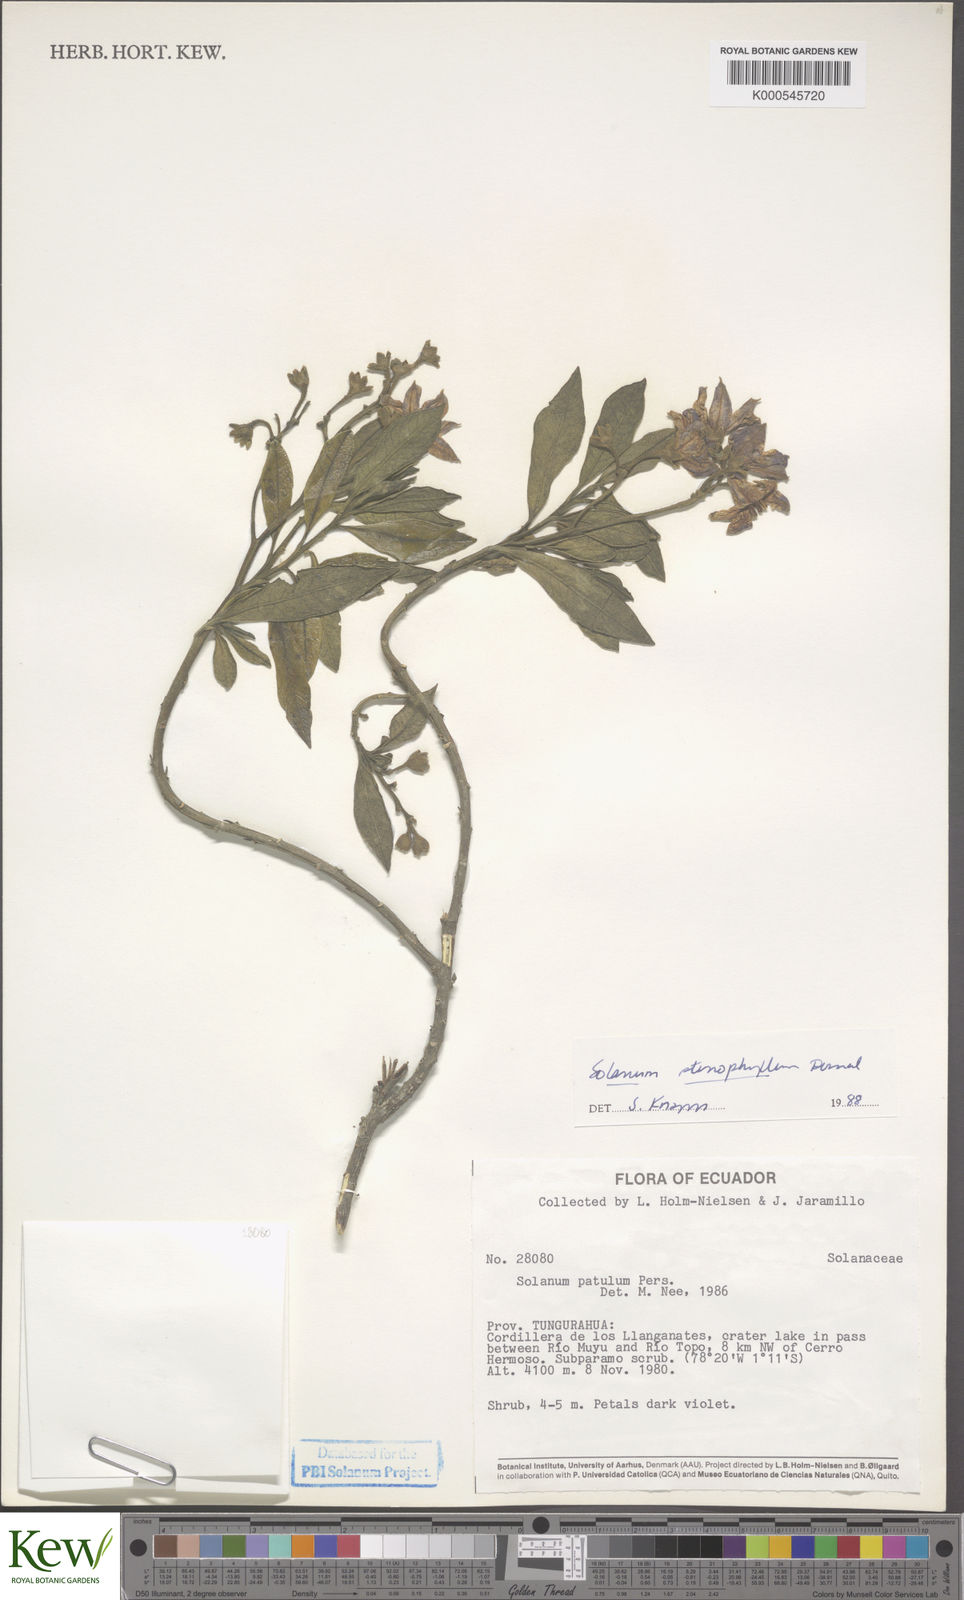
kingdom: Plantae
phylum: Tracheophyta
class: Magnoliopsida
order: Solanales
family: Solanaceae
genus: Solanum
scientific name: Solanum stenophyllum
